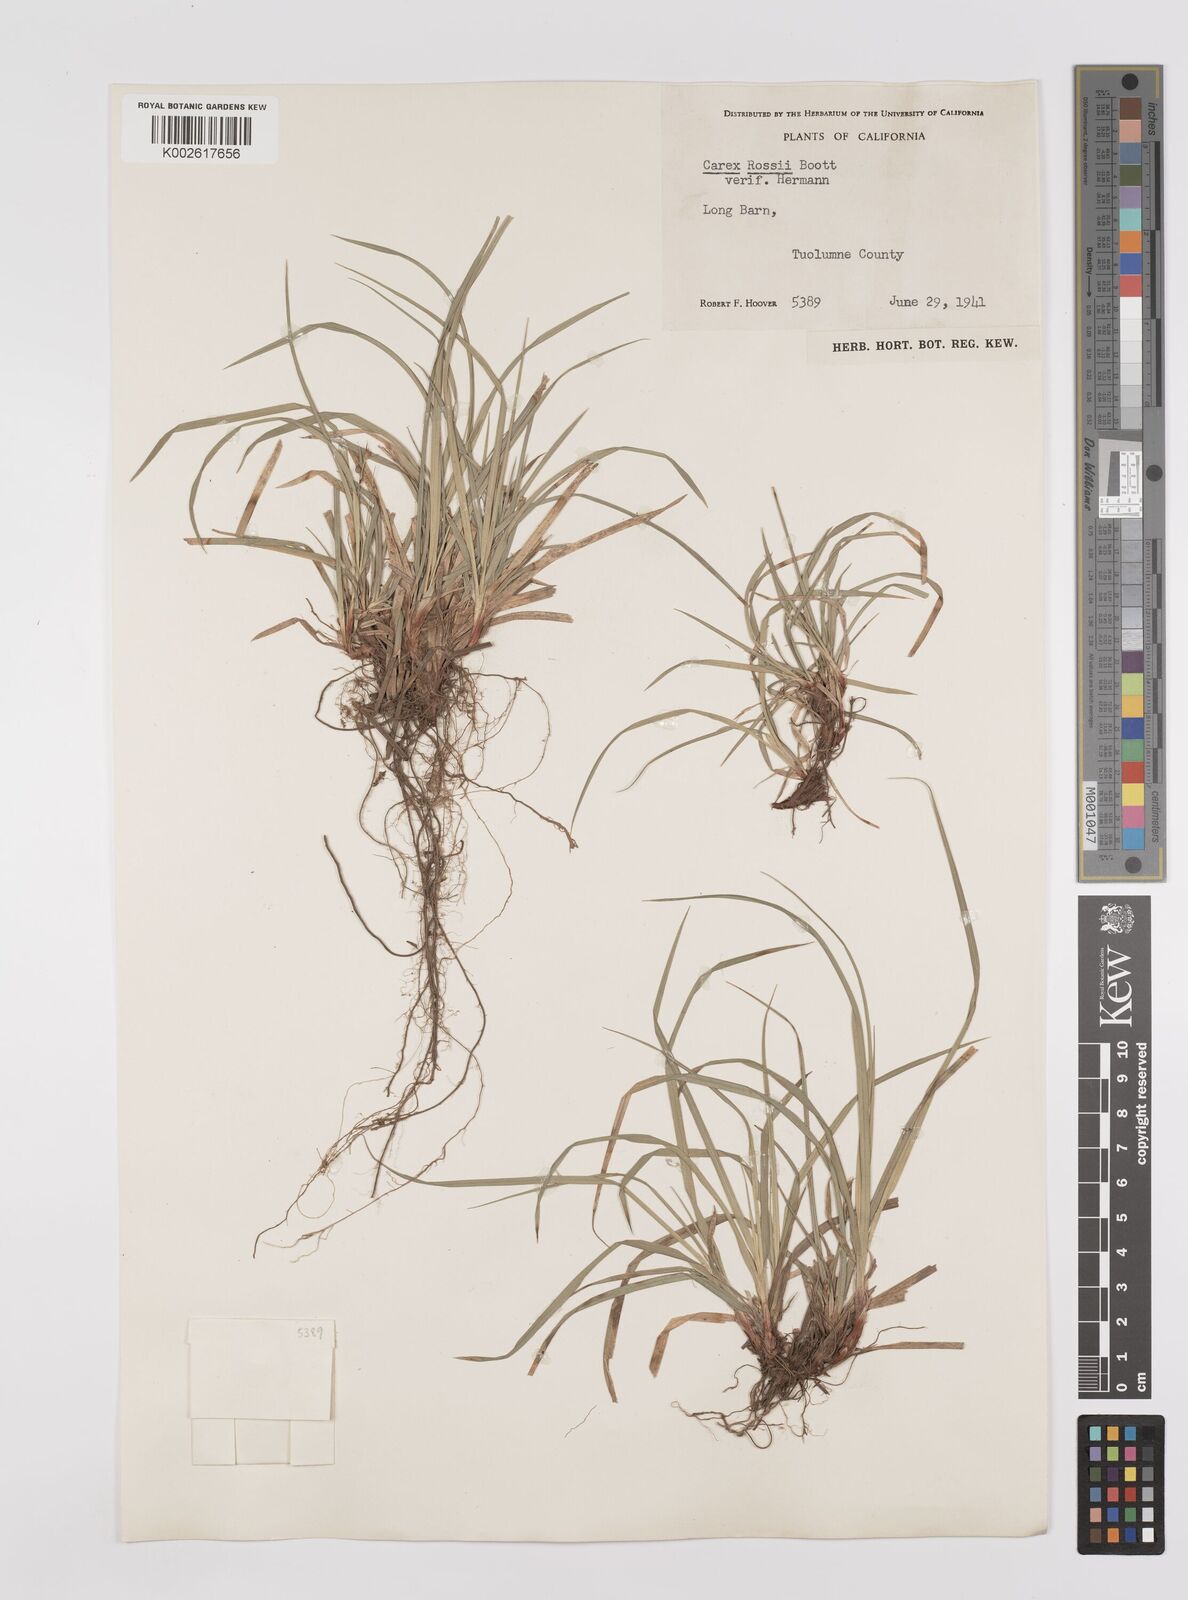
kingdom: Plantae
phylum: Tracheophyta
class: Liliopsida
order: Poales
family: Cyperaceae
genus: Carex
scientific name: Carex rossii
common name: Ross' sedge
